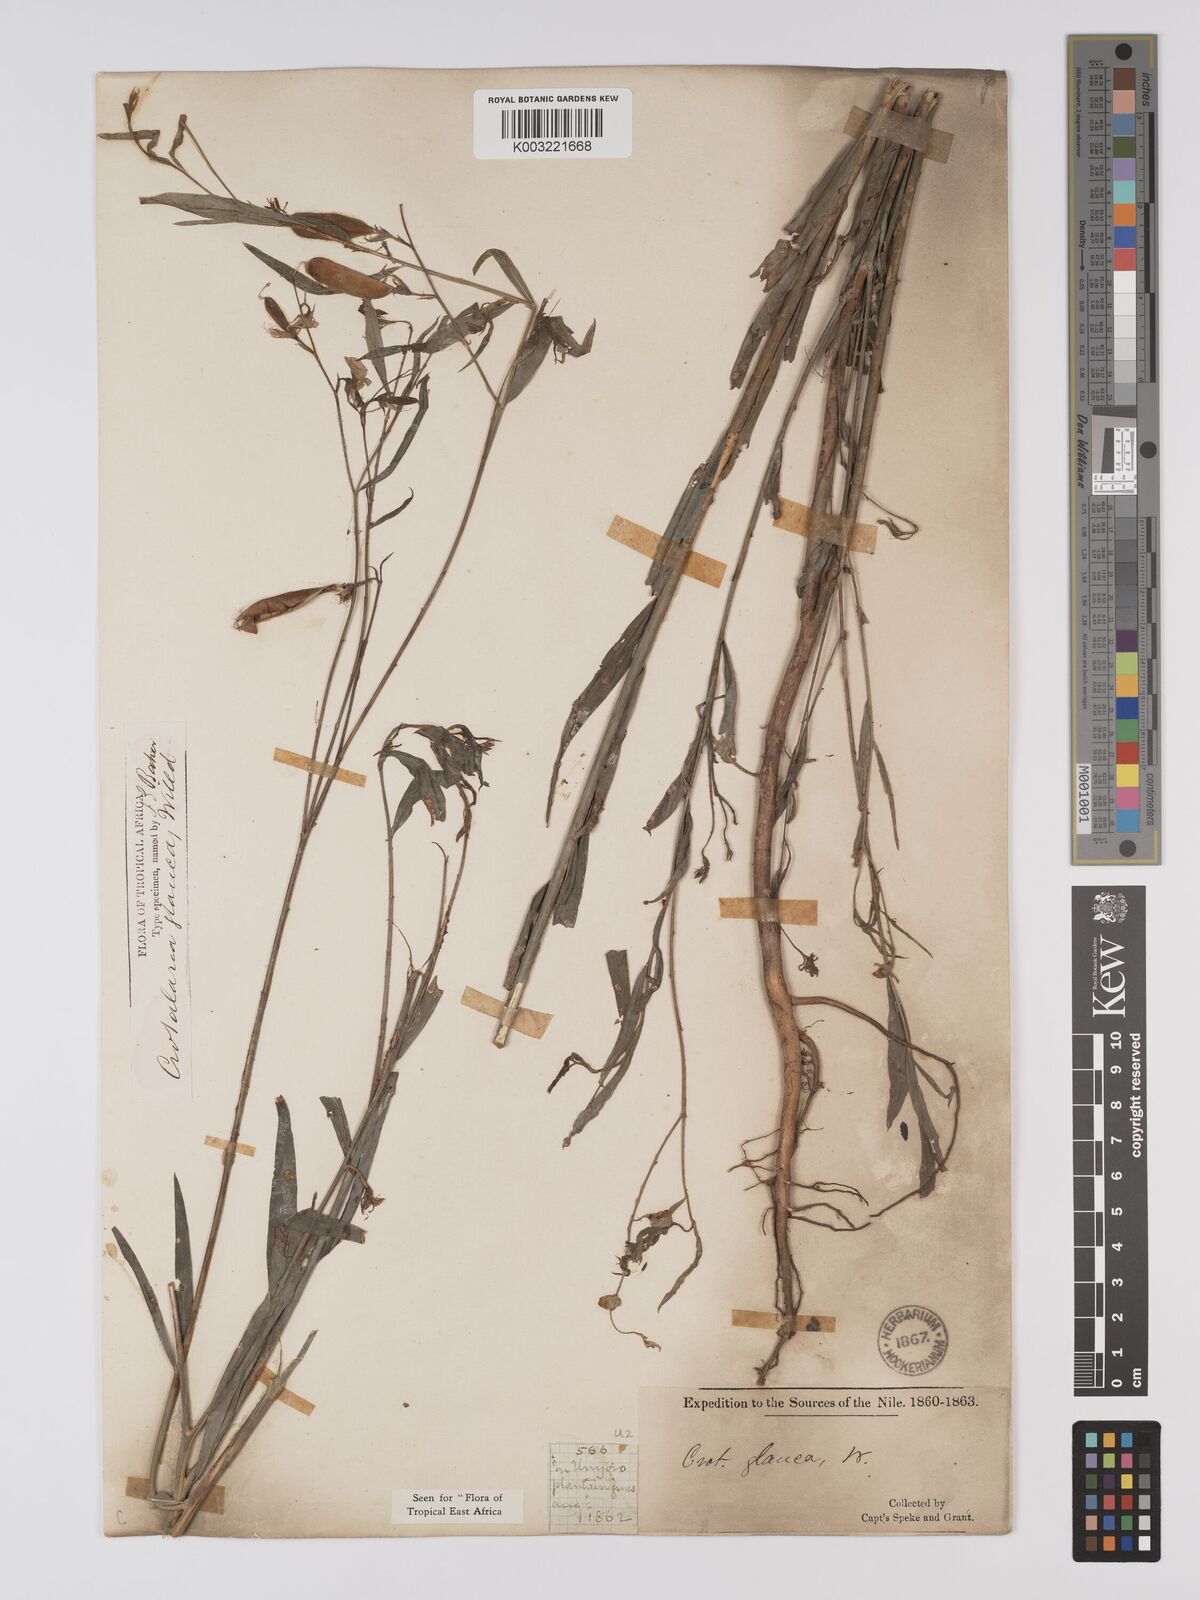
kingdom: Plantae
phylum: Tracheophyta
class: Magnoliopsida
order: Fabales
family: Fabaceae
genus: Crotalaria
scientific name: Crotalaria glauca
